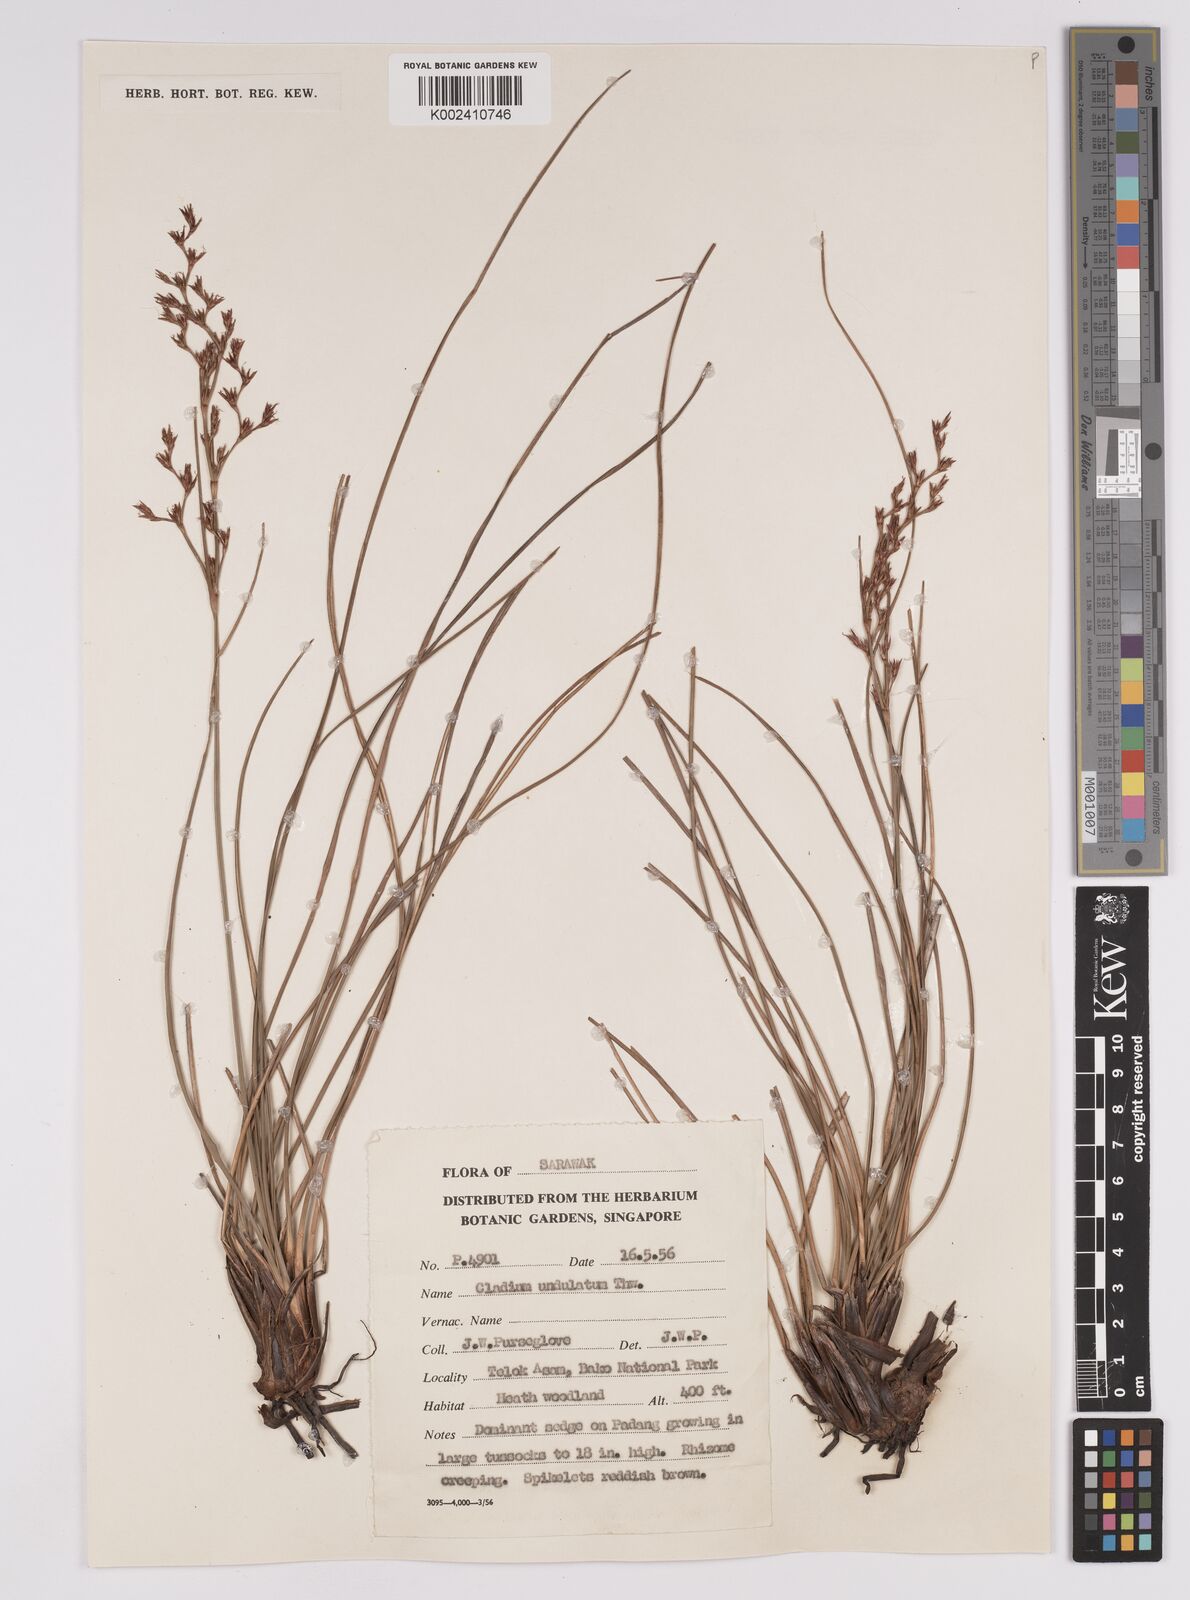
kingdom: Plantae
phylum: Tracheophyta
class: Liliopsida
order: Poales
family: Cyperaceae
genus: Anthelepis
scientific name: Anthelepis undulata
